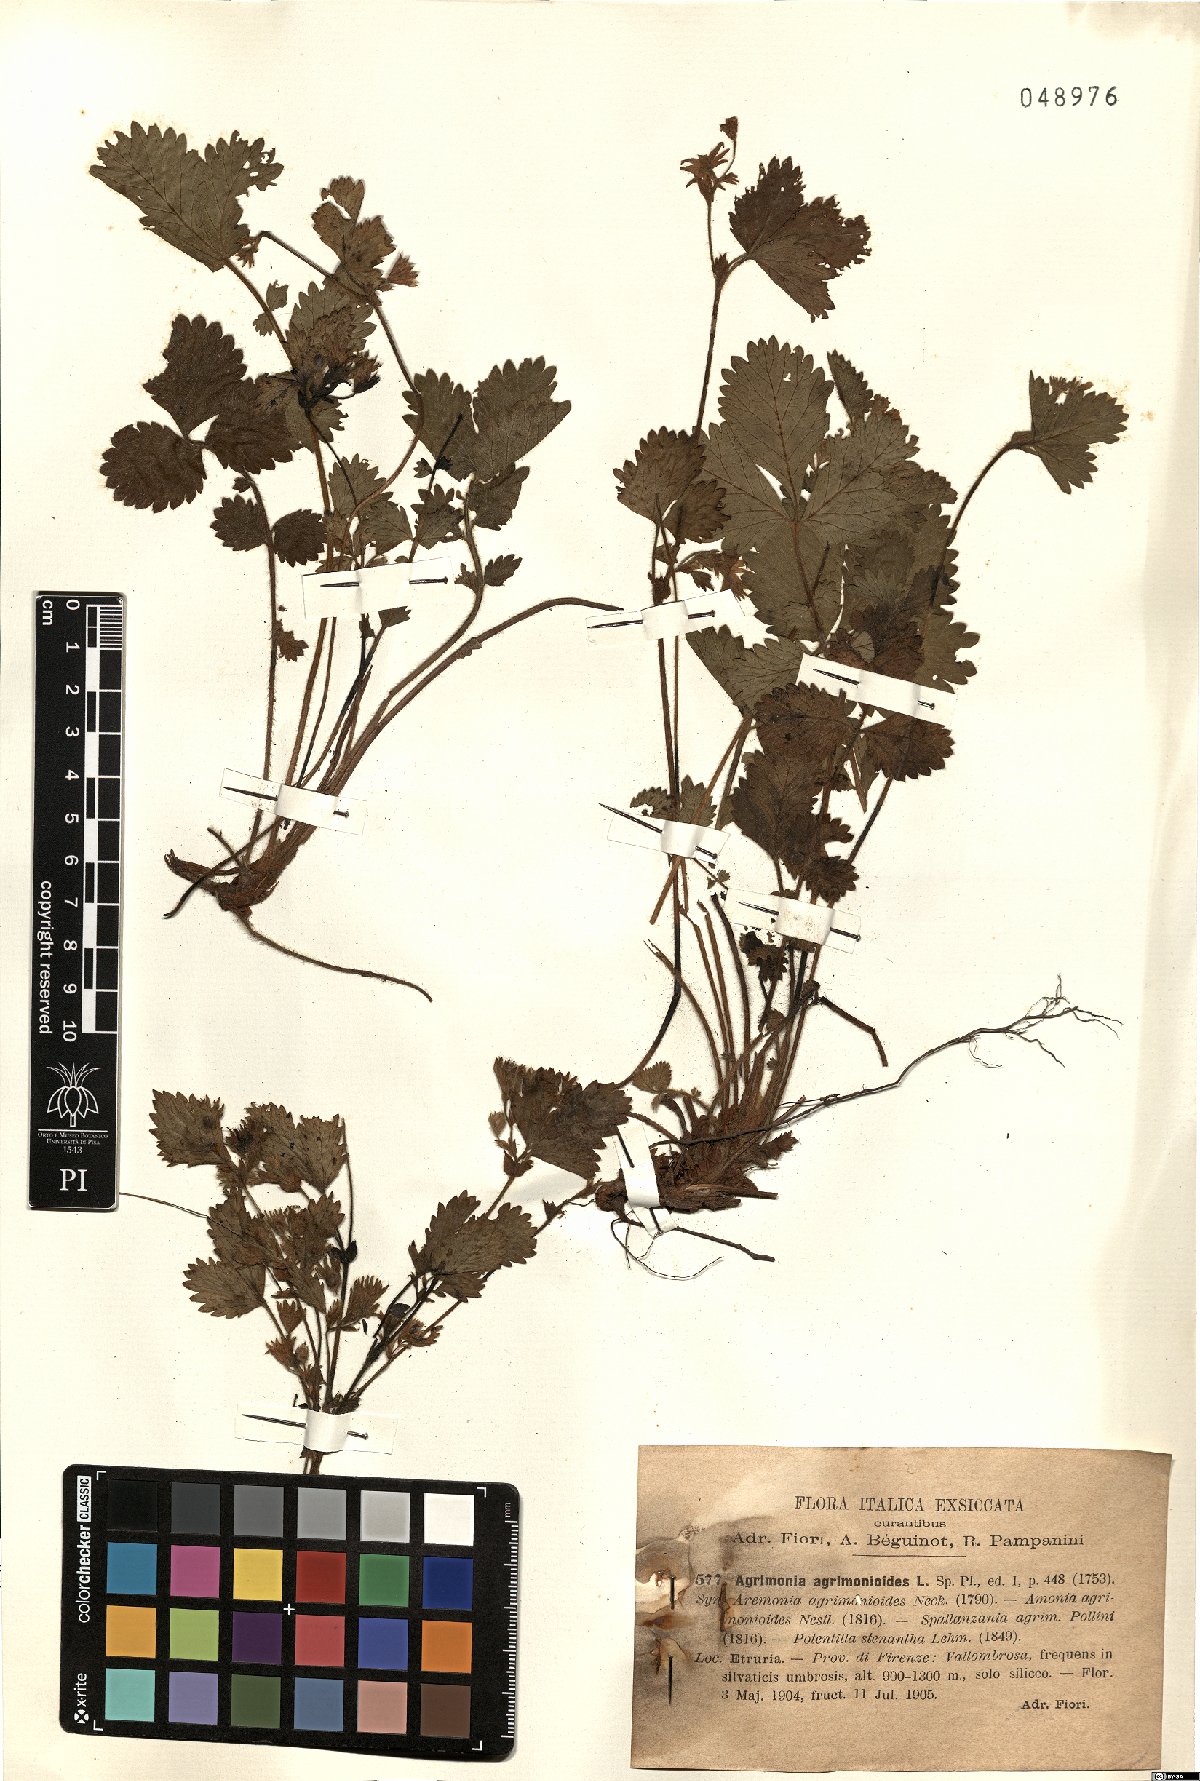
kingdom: Plantae
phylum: Tracheophyta
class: Magnoliopsida
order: Rosales
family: Rosaceae
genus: Aremonia
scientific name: Aremonia agrimonoides
